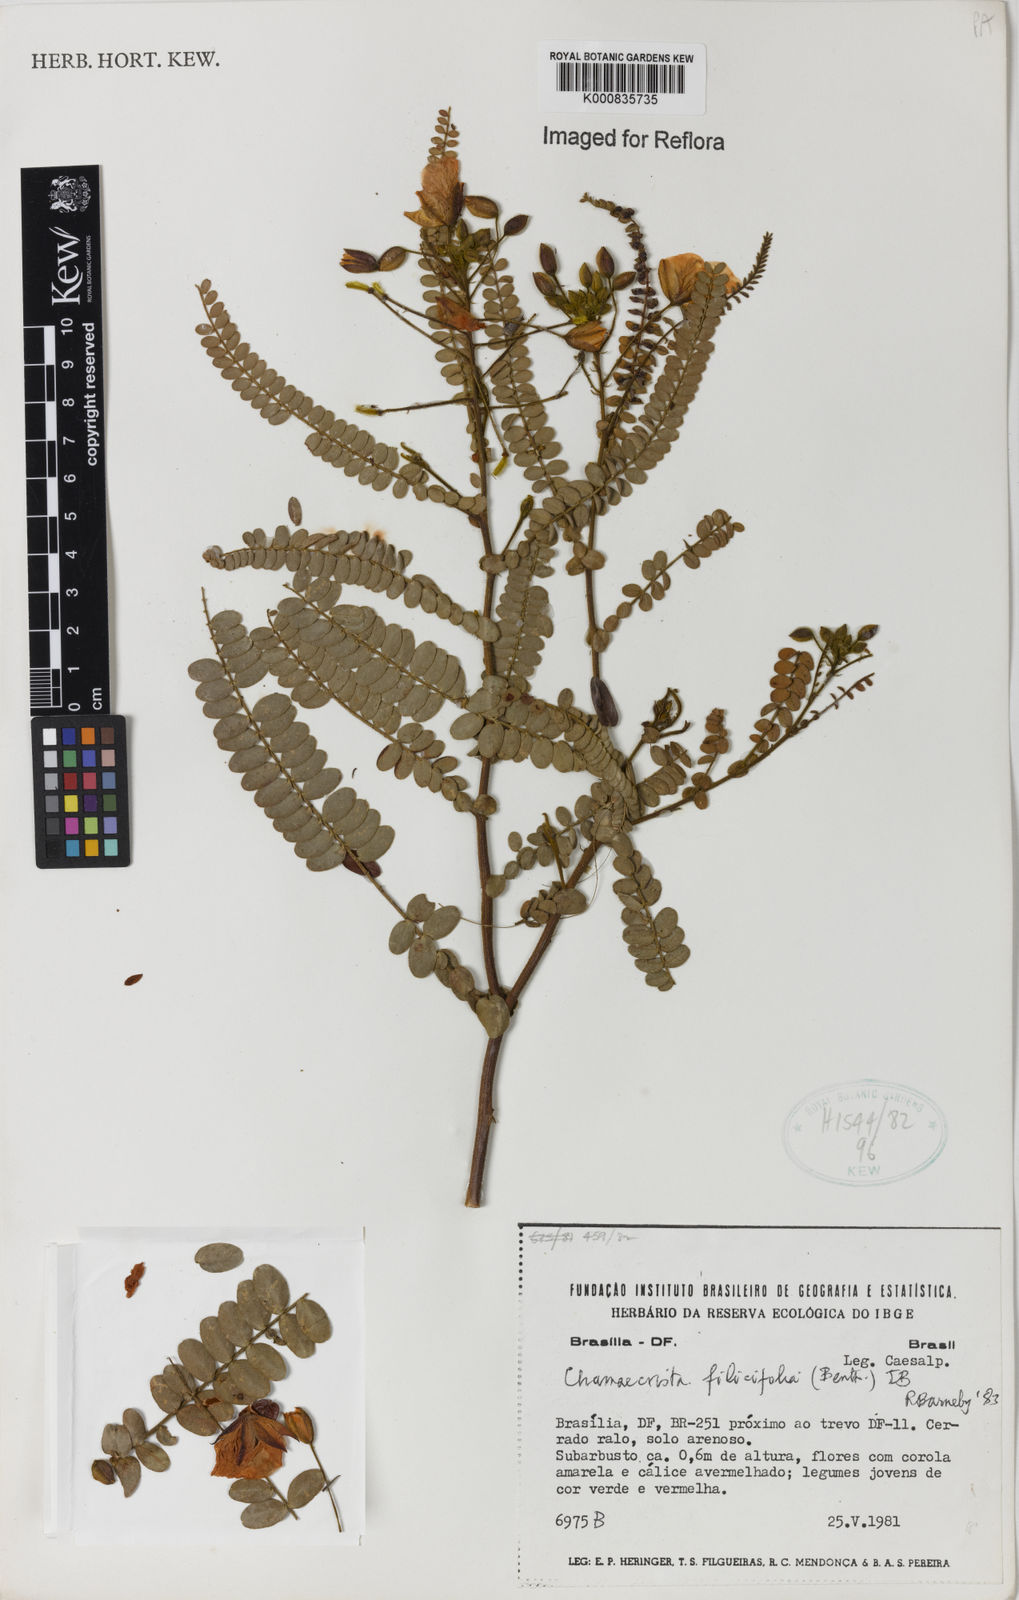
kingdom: Plantae
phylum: Tracheophyta
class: Magnoliopsida
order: Fabales
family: Fabaceae
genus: Chamaecrista
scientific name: Chamaecrista filicifolia
